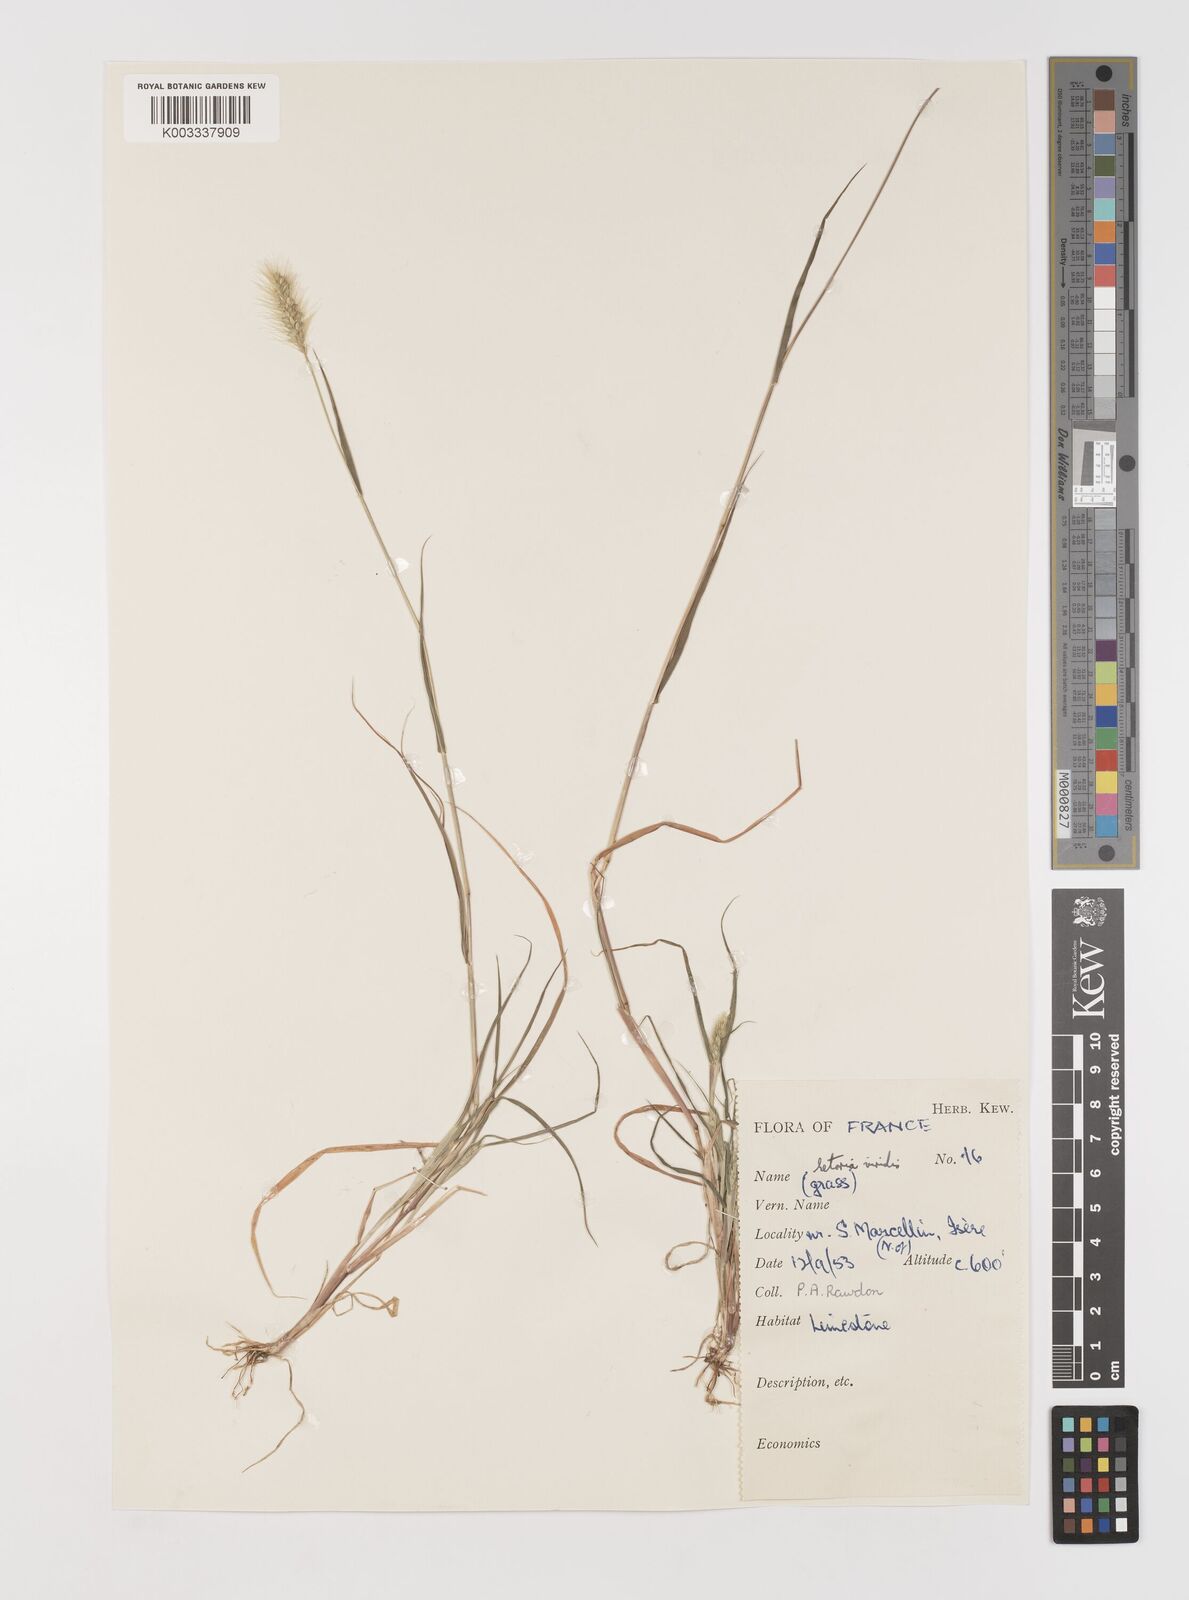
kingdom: Plantae
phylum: Tracheophyta
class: Liliopsida
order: Poales
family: Poaceae
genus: Setaria
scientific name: Setaria viridis
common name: Green bristlegrass
